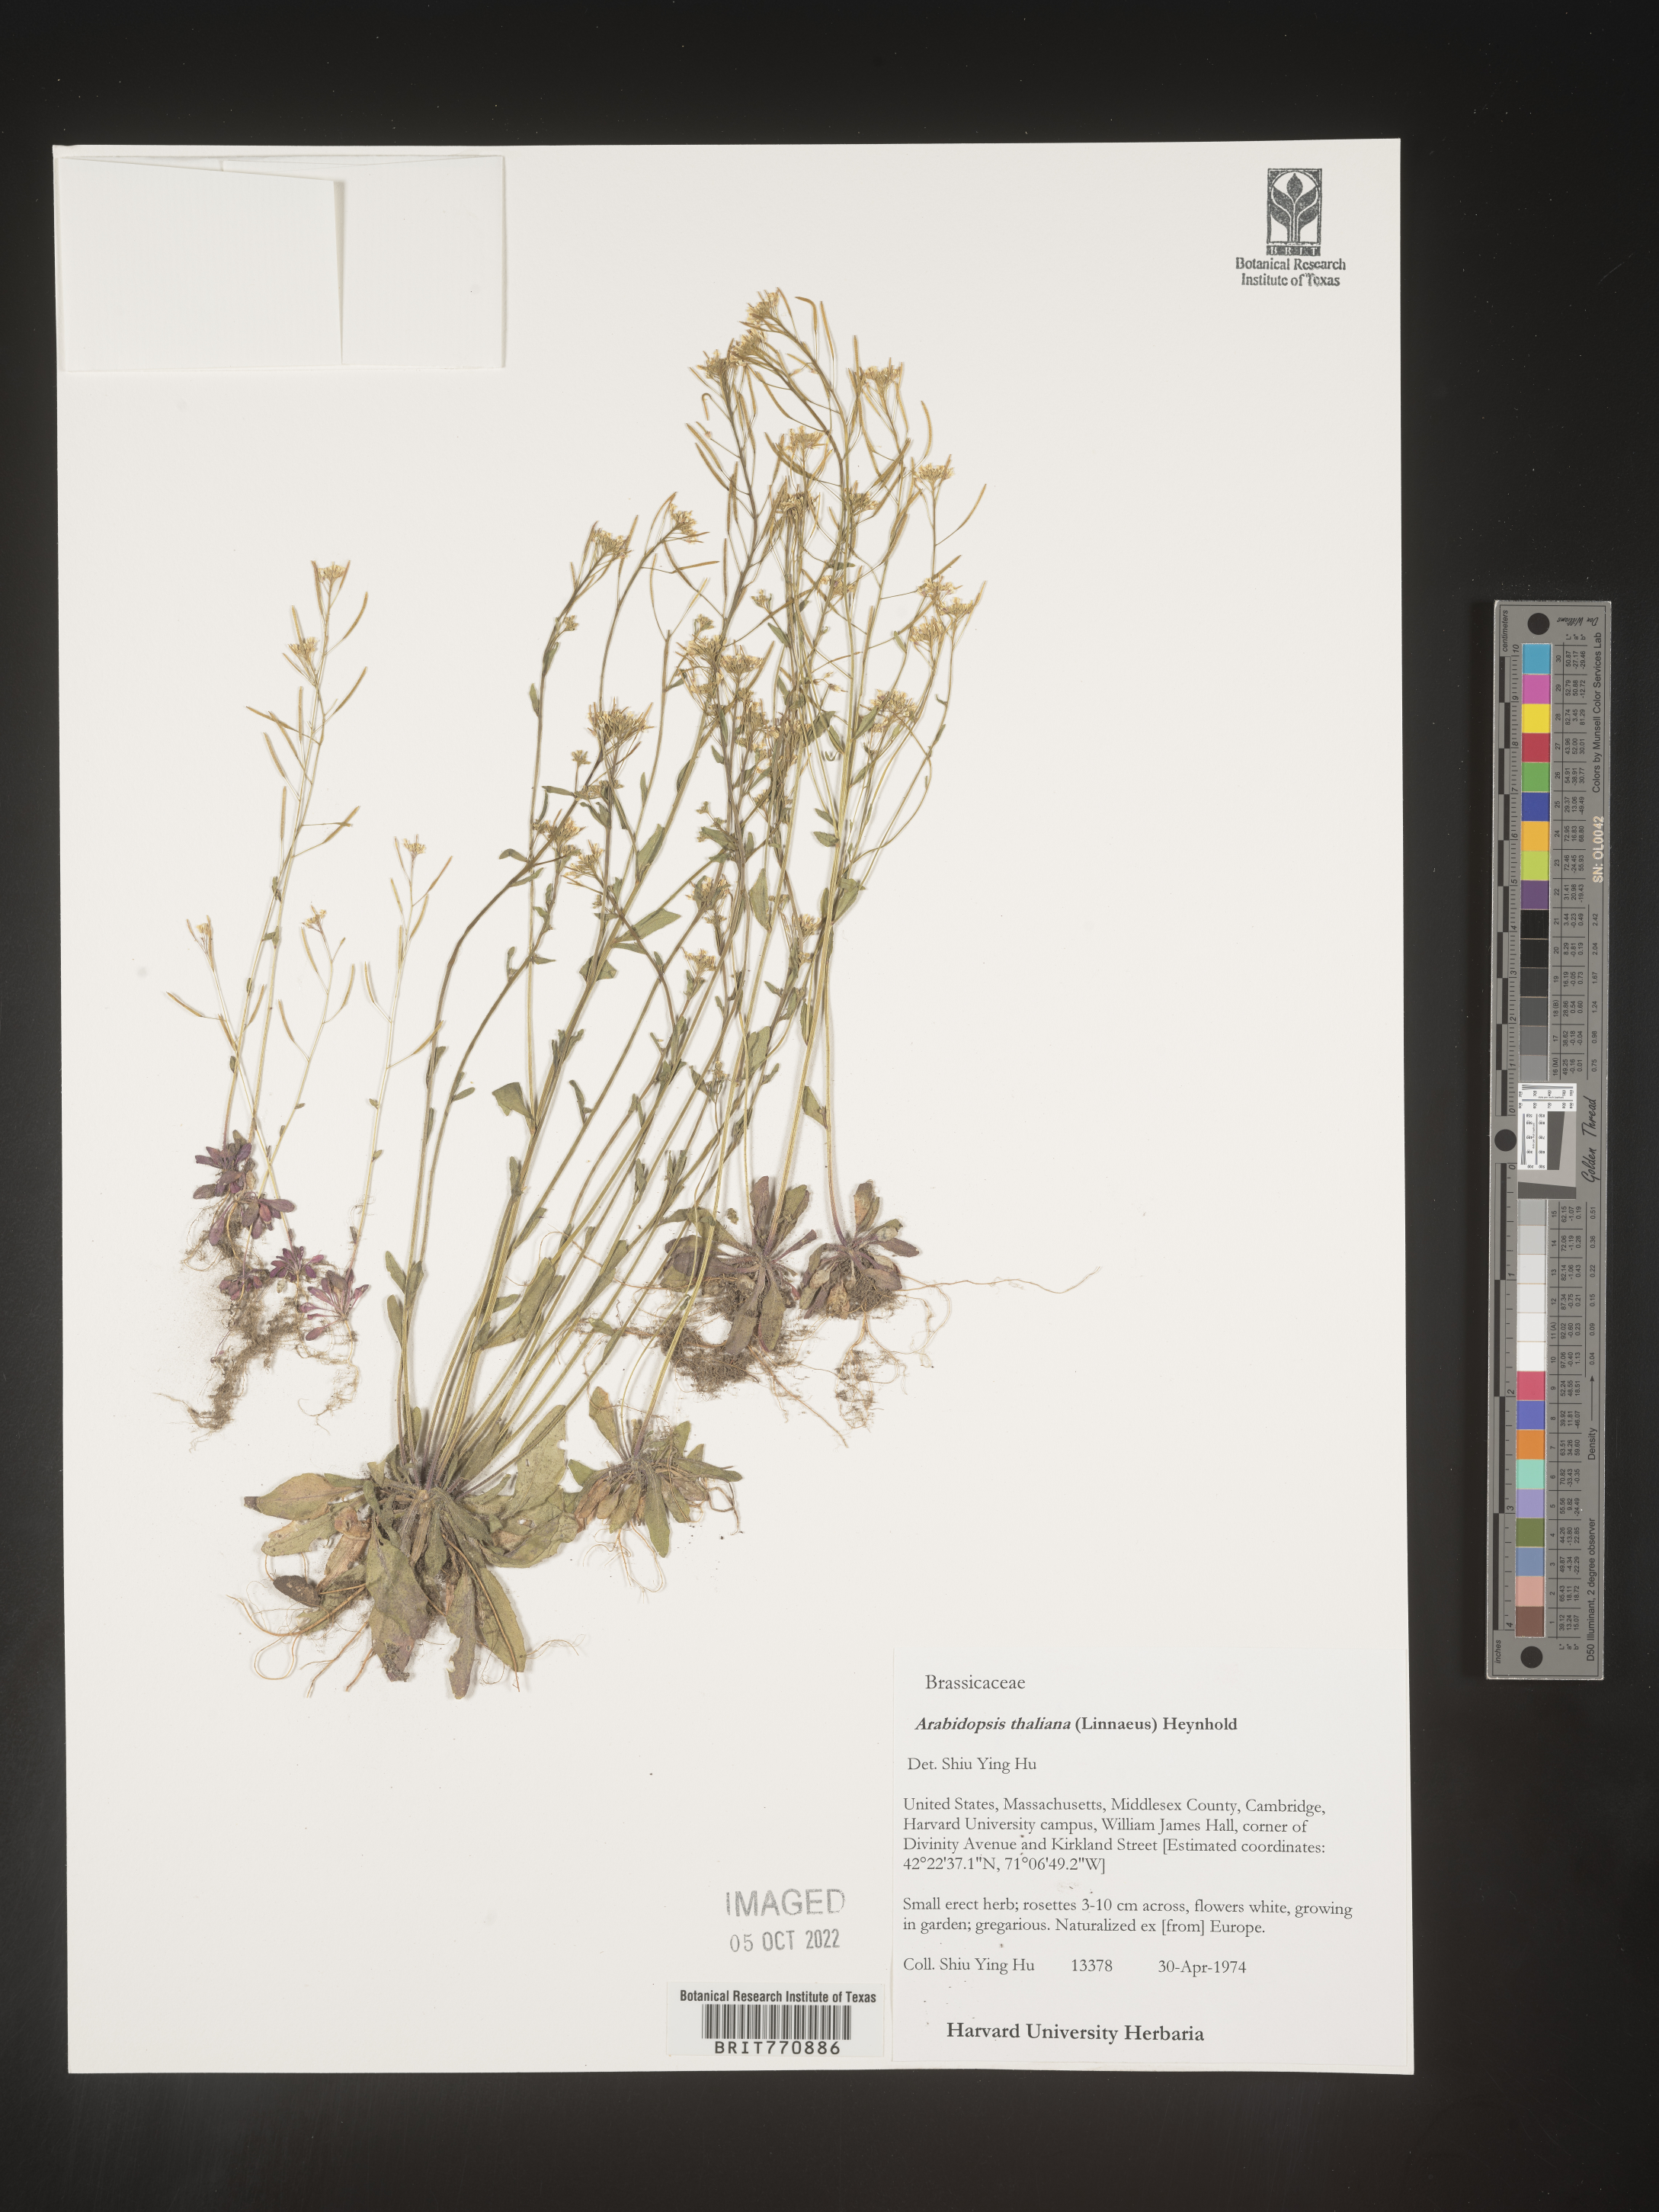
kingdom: Plantae
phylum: Tracheophyta
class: Magnoliopsida
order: Brassicales
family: Brassicaceae
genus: Arabidopsis
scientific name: Arabidopsis thaliana
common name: Thale cress
